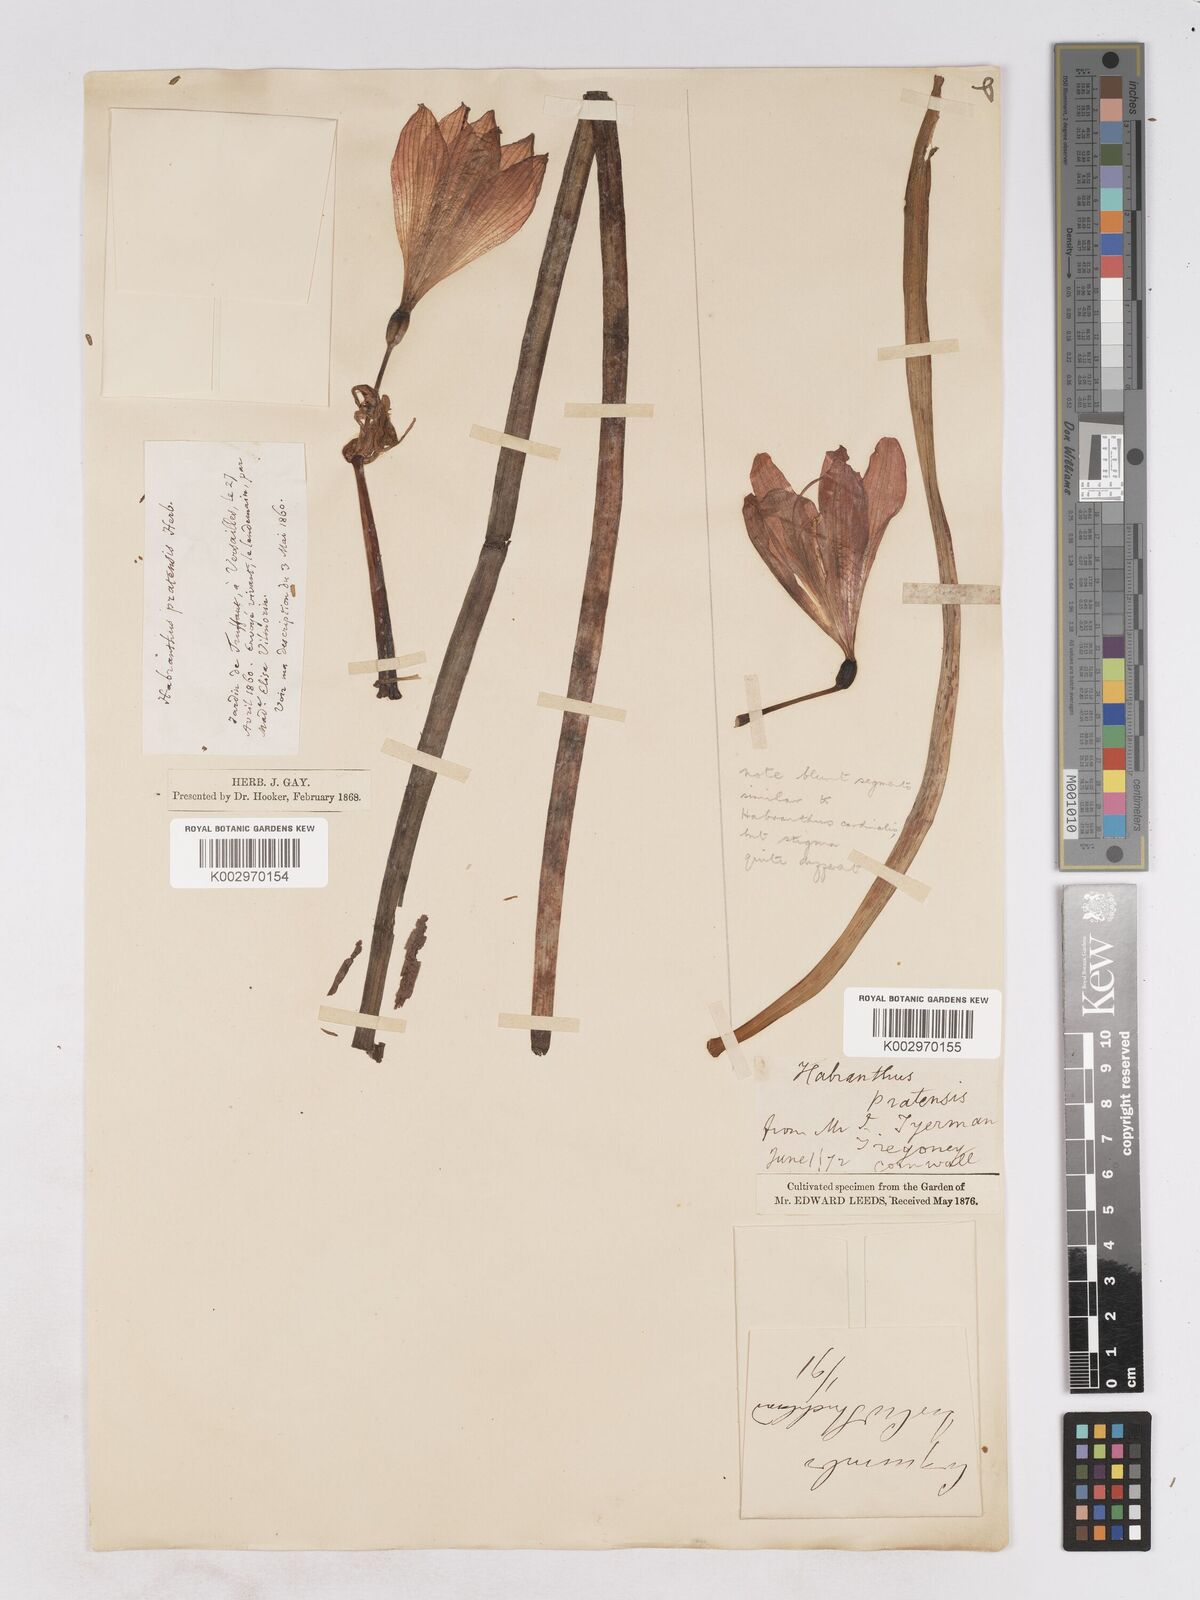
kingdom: Plantae
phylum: Tracheophyta
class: Liliopsida
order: Asparagales
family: Amaryllidaceae
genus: Phycella
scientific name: Phycella chilensis
